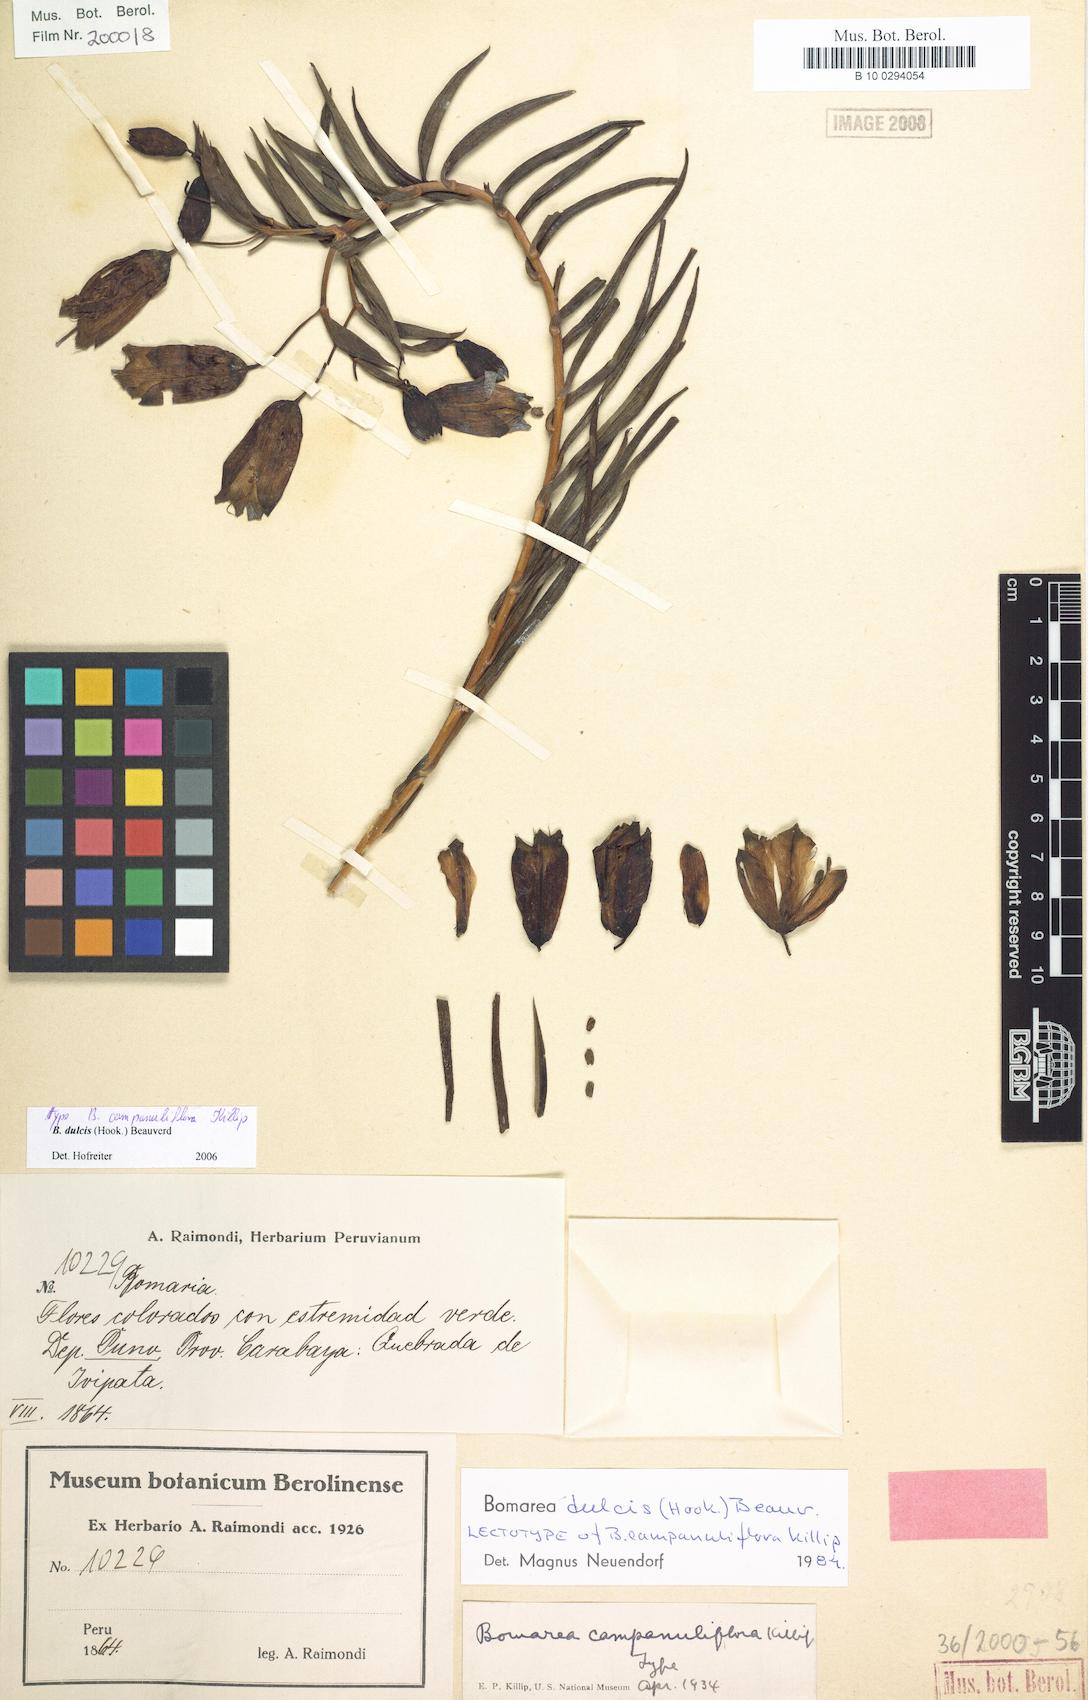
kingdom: Plantae
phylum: Tracheophyta
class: Liliopsida
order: Liliales
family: Alstroemeriaceae
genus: Bomarea
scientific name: Bomarea dulcis
